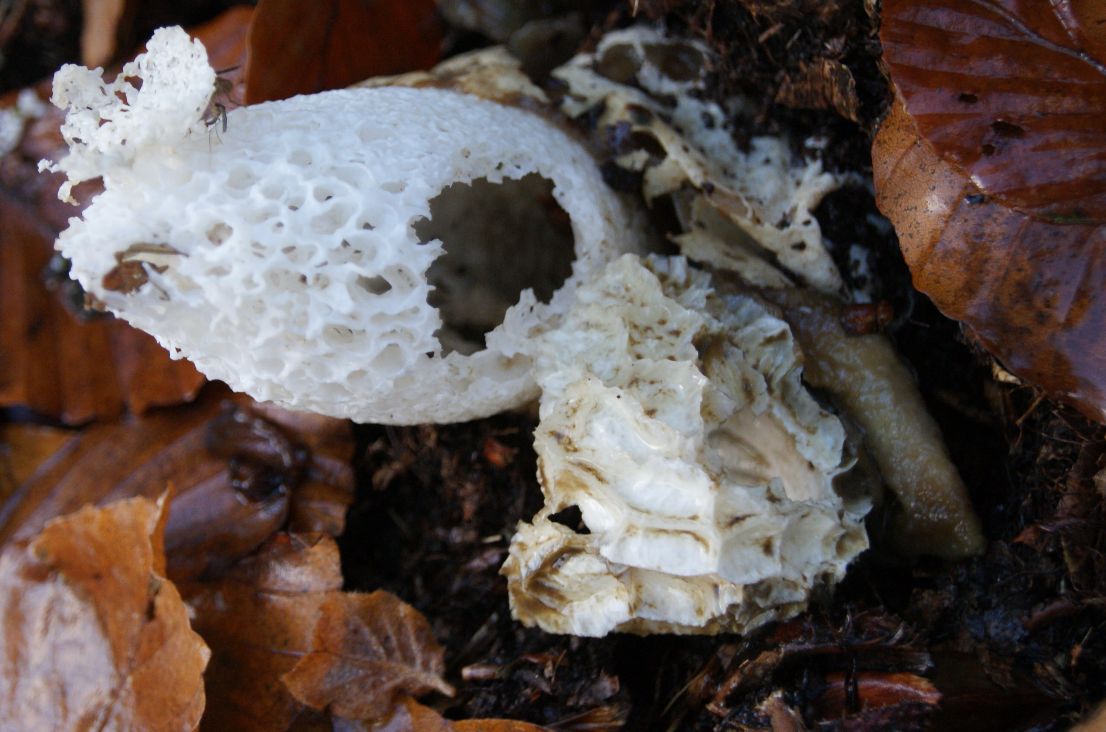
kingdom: Fungi
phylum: Basidiomycota
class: Agaricomycetes
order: Phallales
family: Phallaceae
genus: Phallus
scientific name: Phallus impudicus
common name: almindelig stinksvamp
